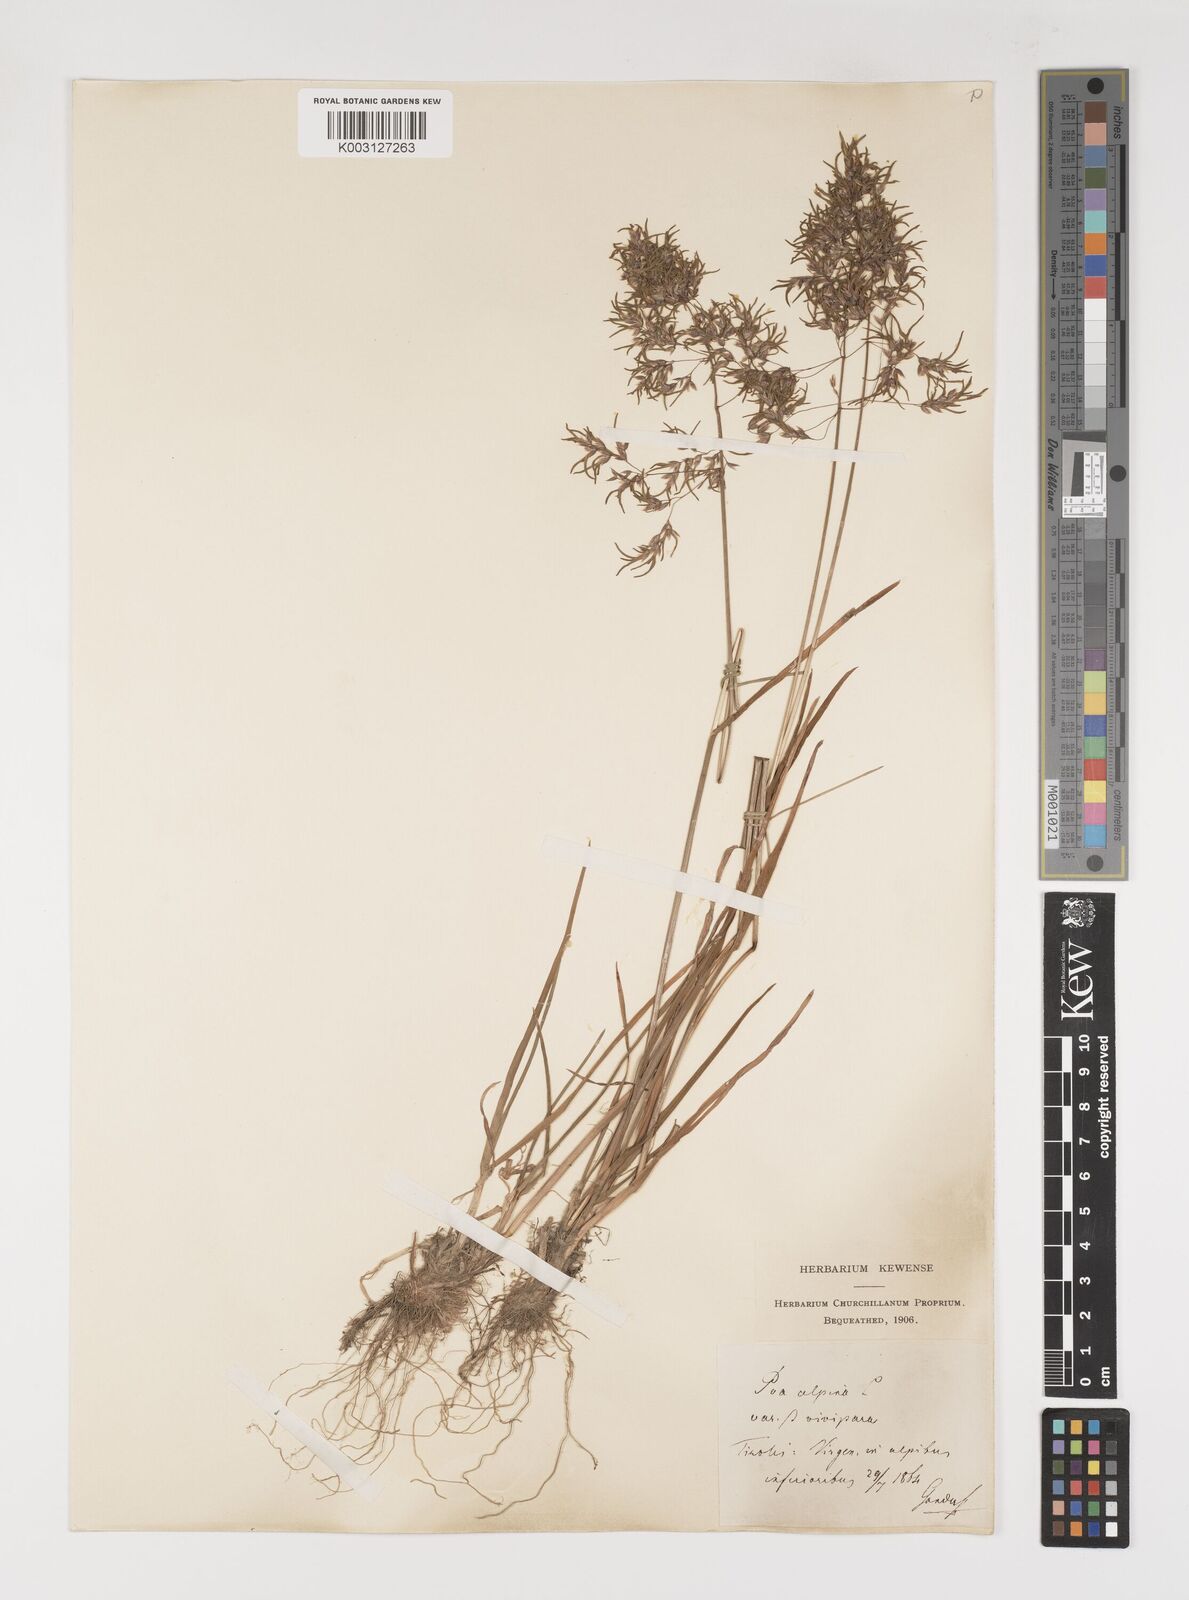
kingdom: Plantae
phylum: Tracheophyta
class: Liliopsida
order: Poales
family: Poaceae
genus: Poa
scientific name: Poa alpina
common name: Alpine bluegrass
